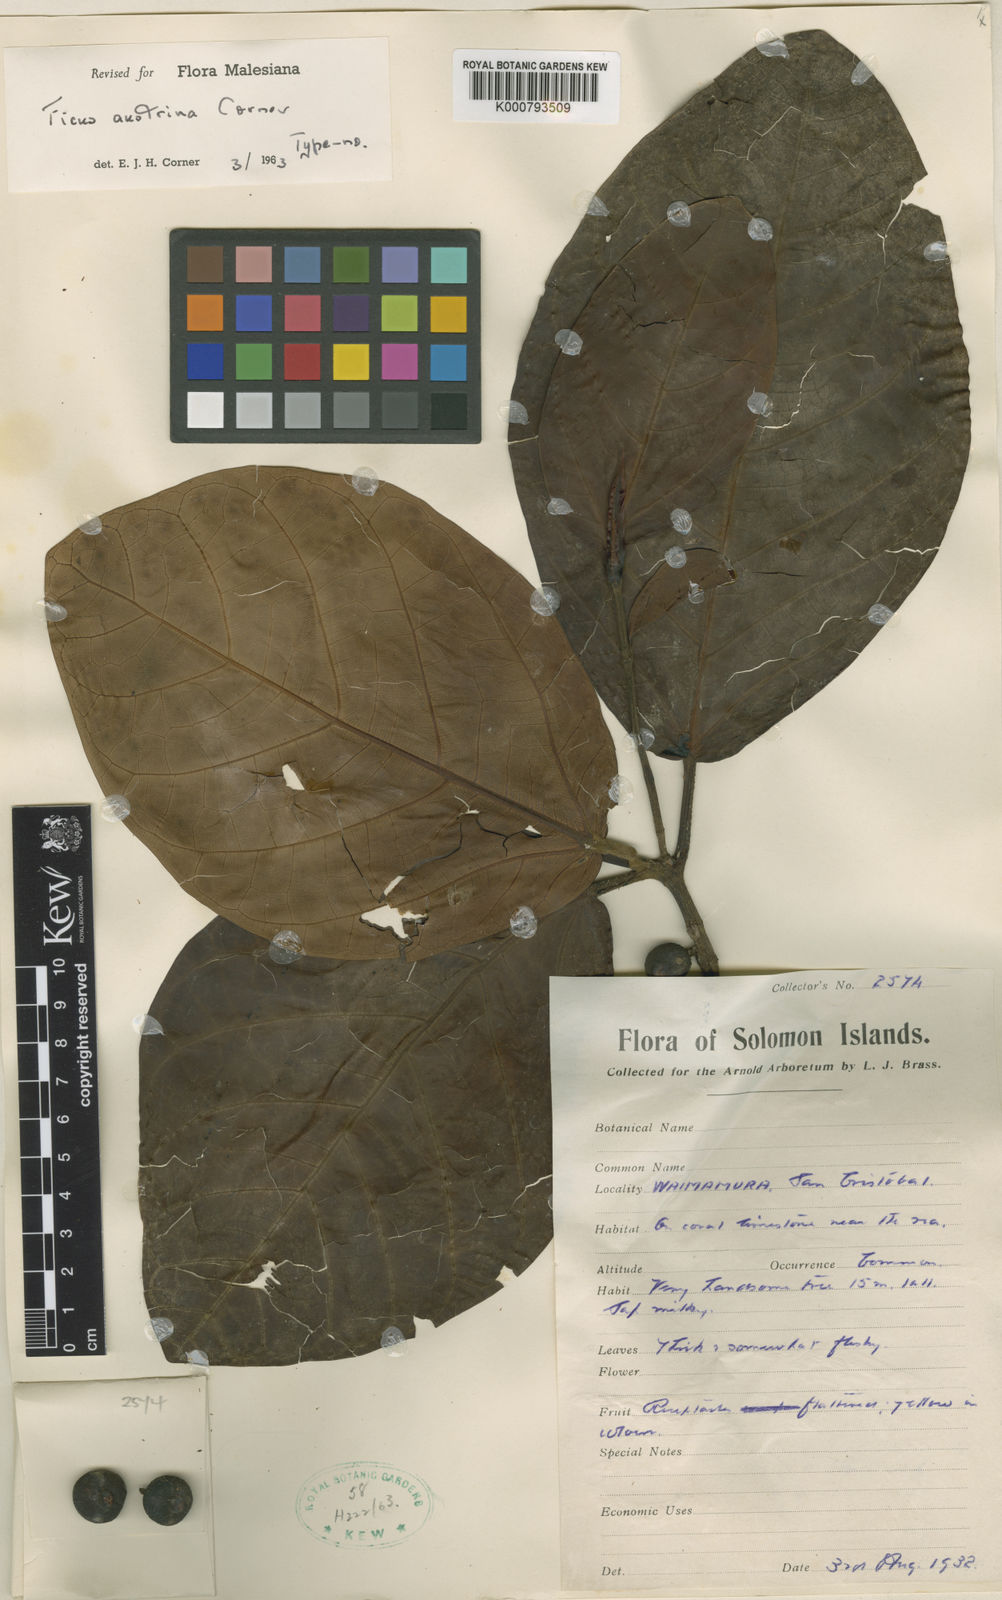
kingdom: Plantae
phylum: Tracheophyta
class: Magnoliopsida
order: Rosales
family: Moraceae
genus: Ficus
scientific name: Ficus austrina
